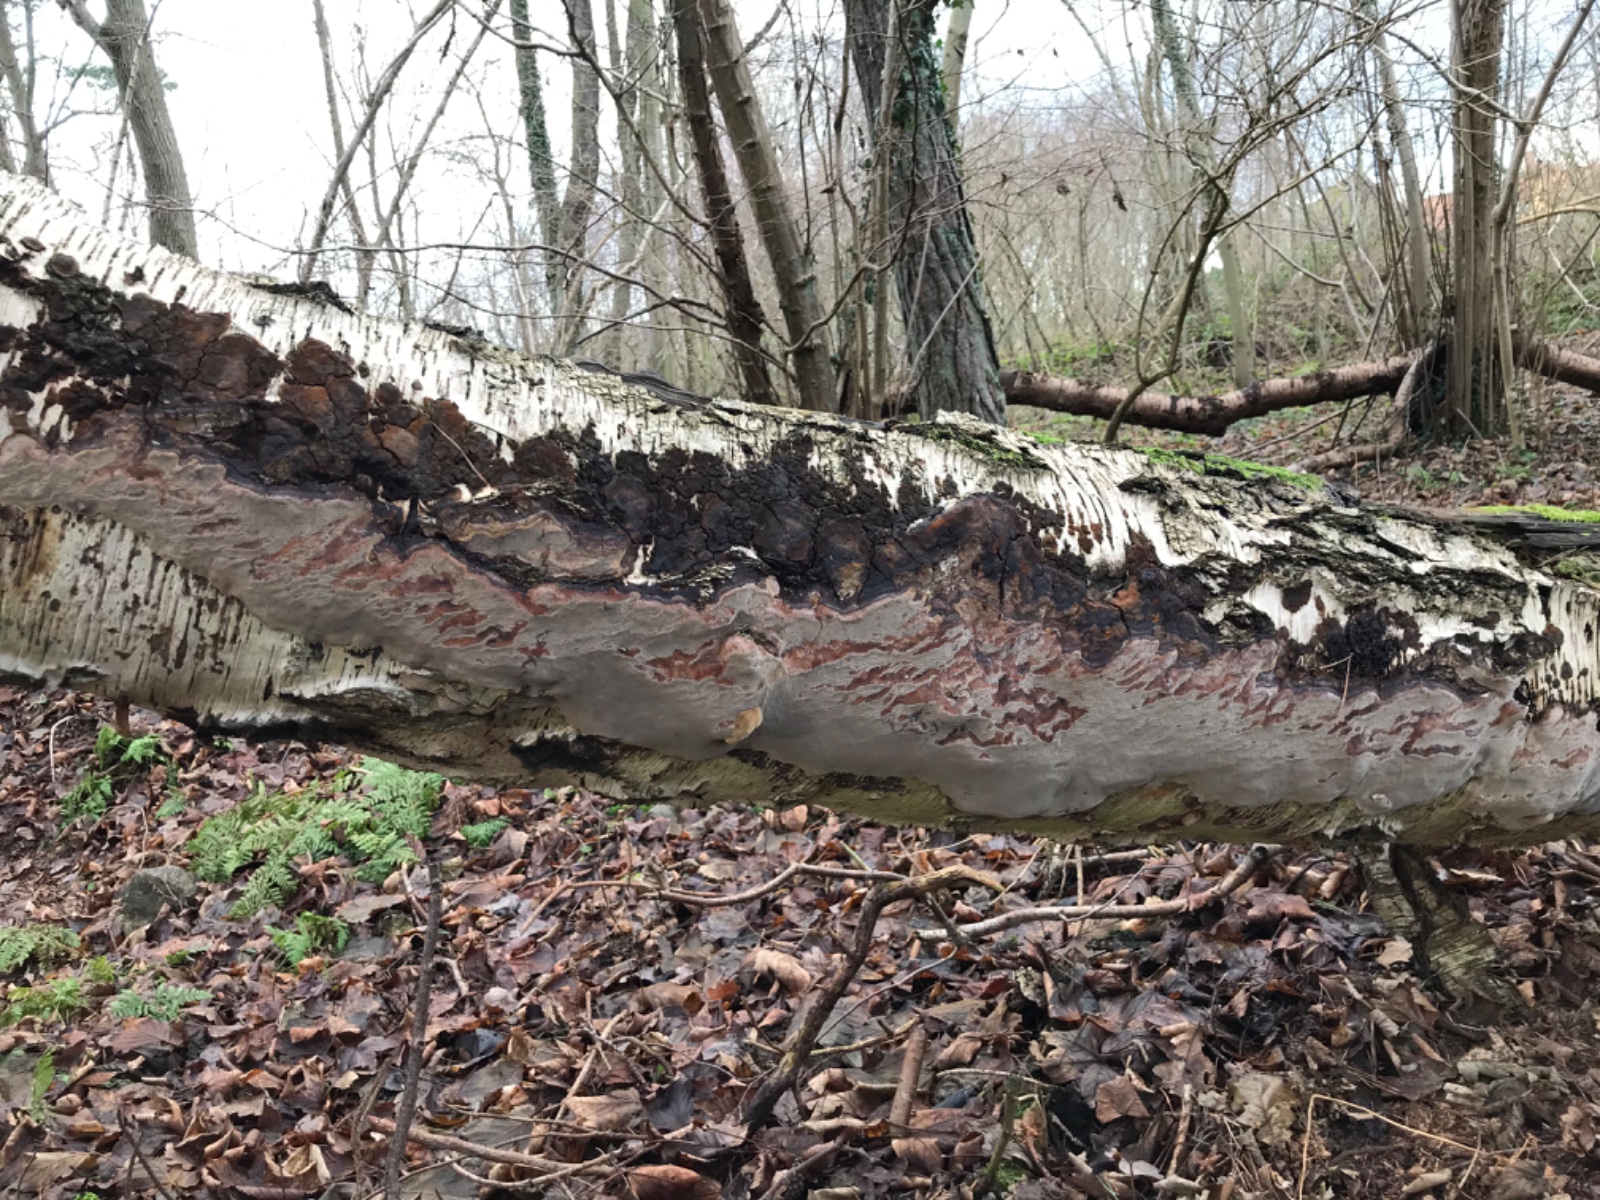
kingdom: Fungi
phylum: Basidiomycota
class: Agaricomycetes
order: Hymenochaetales
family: Hymenochaetaceae
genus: Phellinus
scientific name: Phellinus laevigatus
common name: glat ildporesvamp
